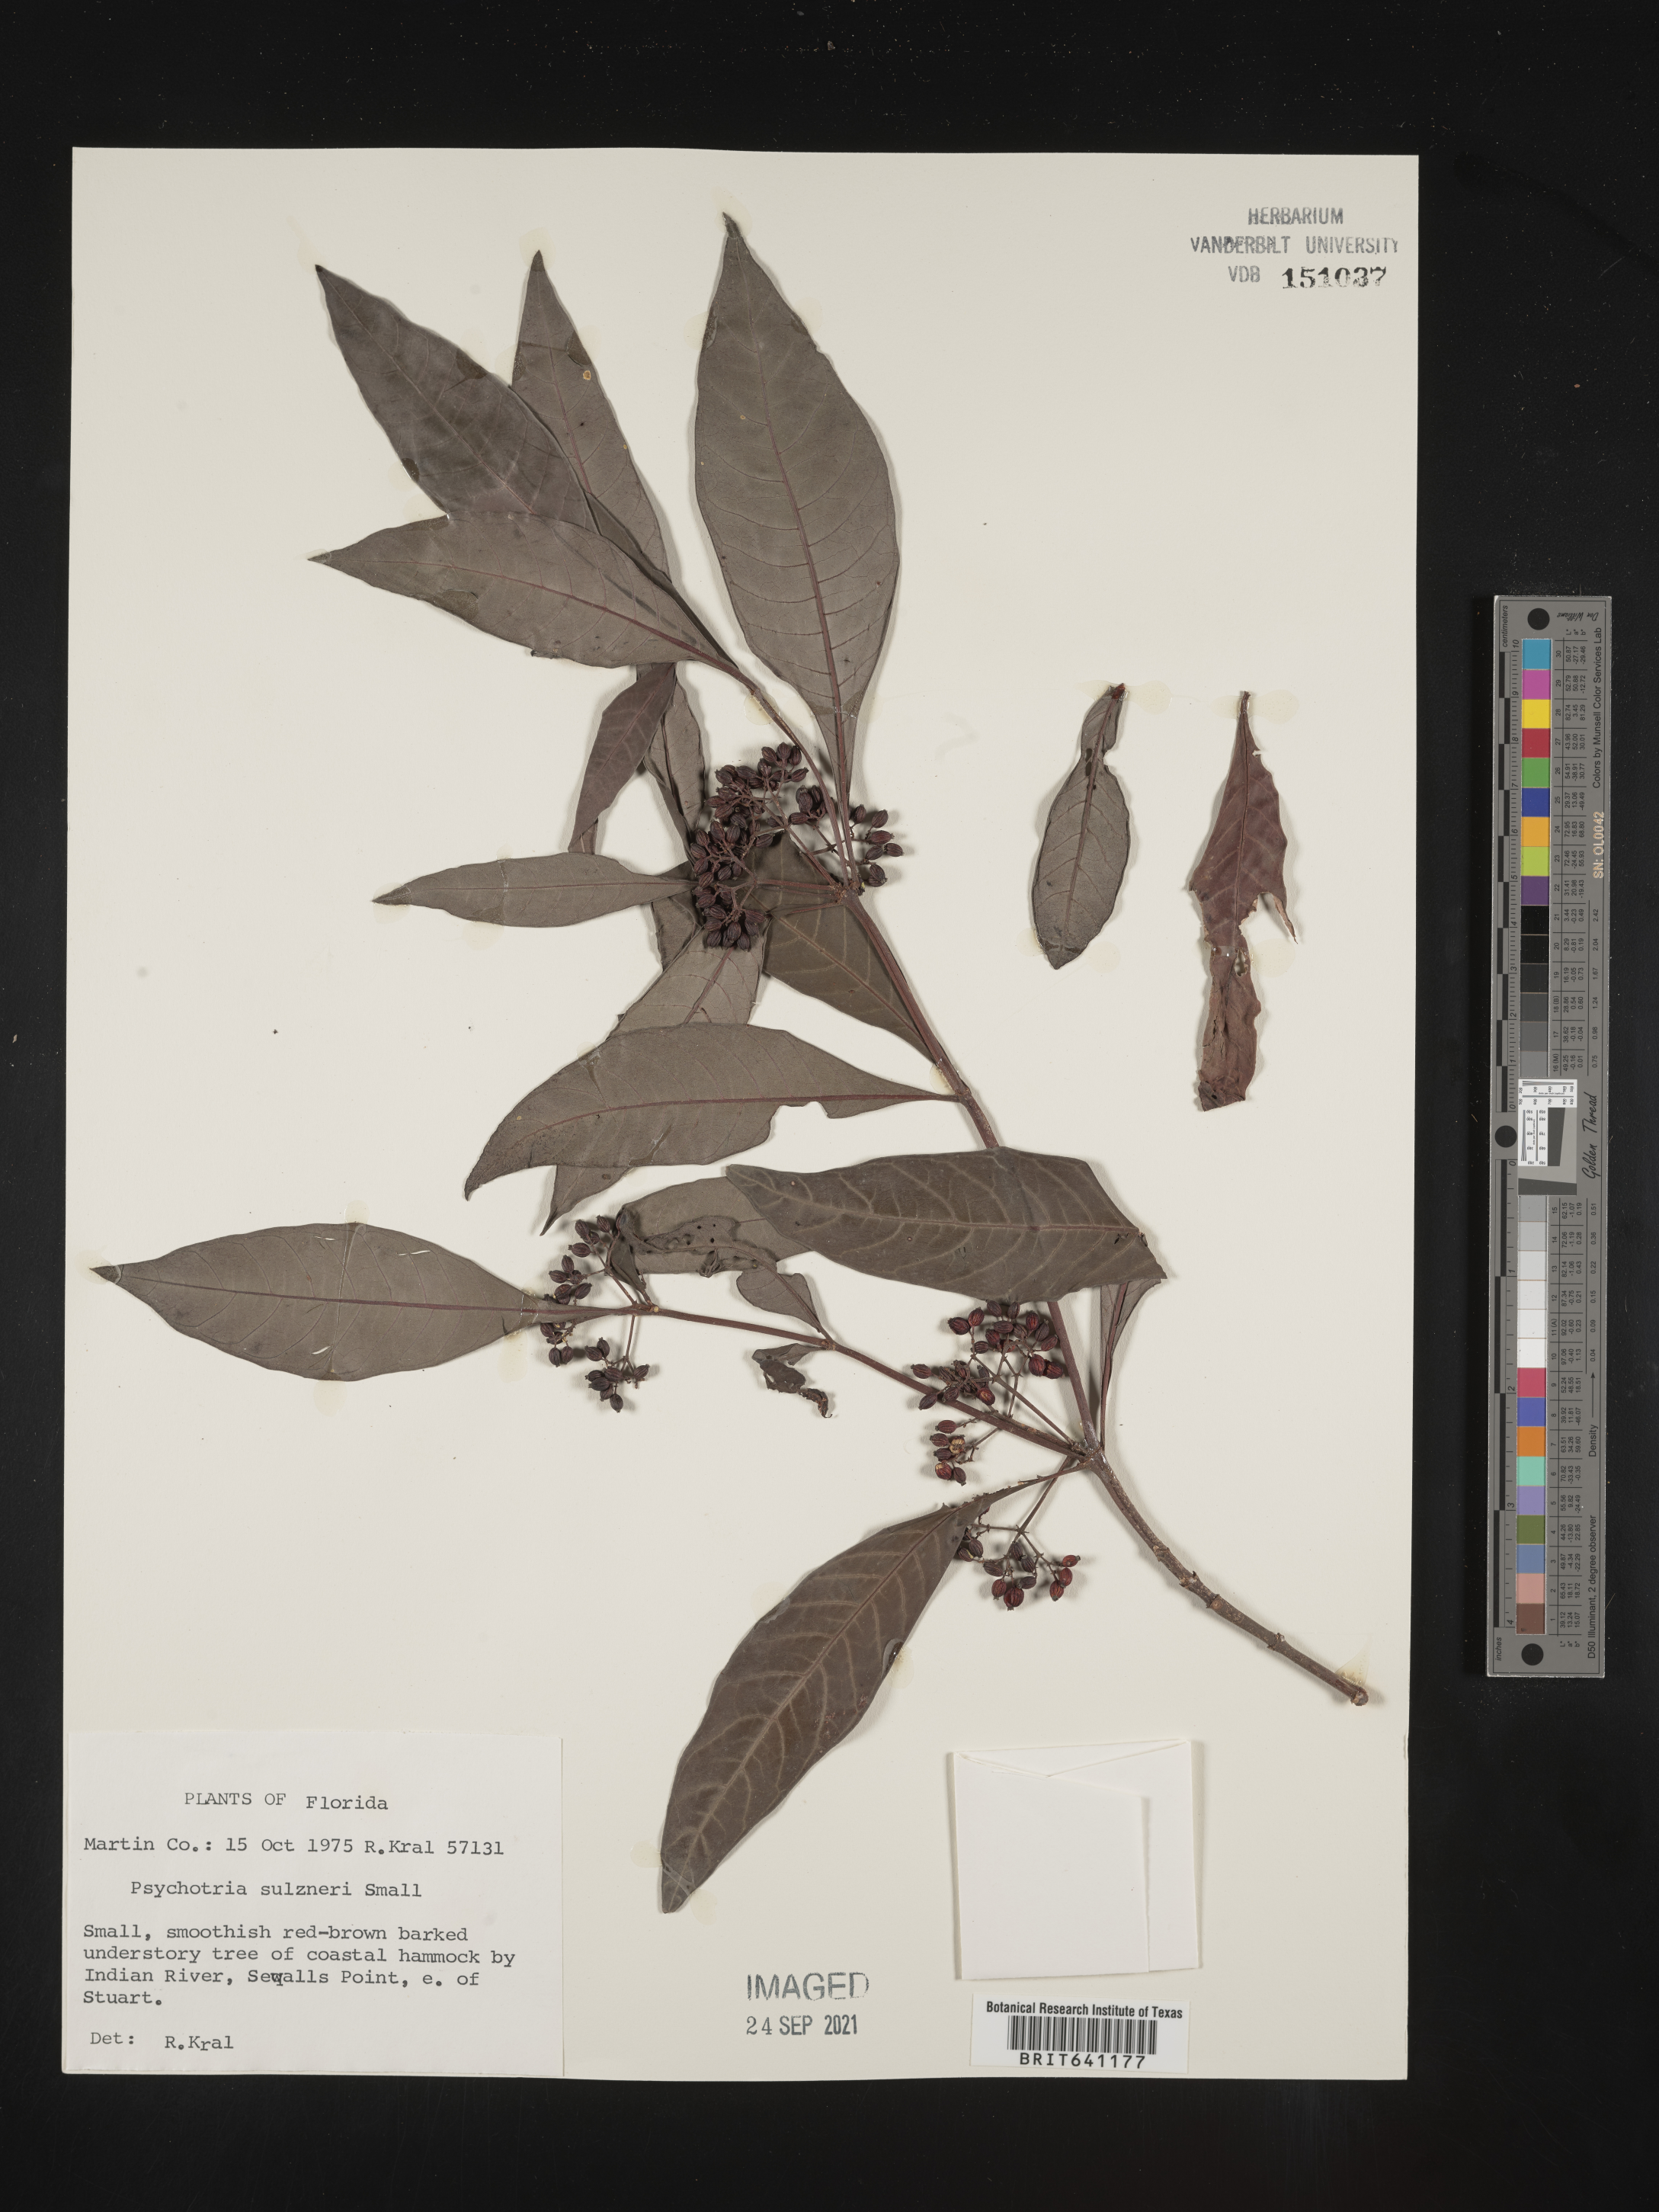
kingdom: Plantae
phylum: Tracheophyta
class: Magnoliopsida
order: Gentianales
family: Rubiaceae
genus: Psychotria
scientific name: Psychotria tenuifolia
